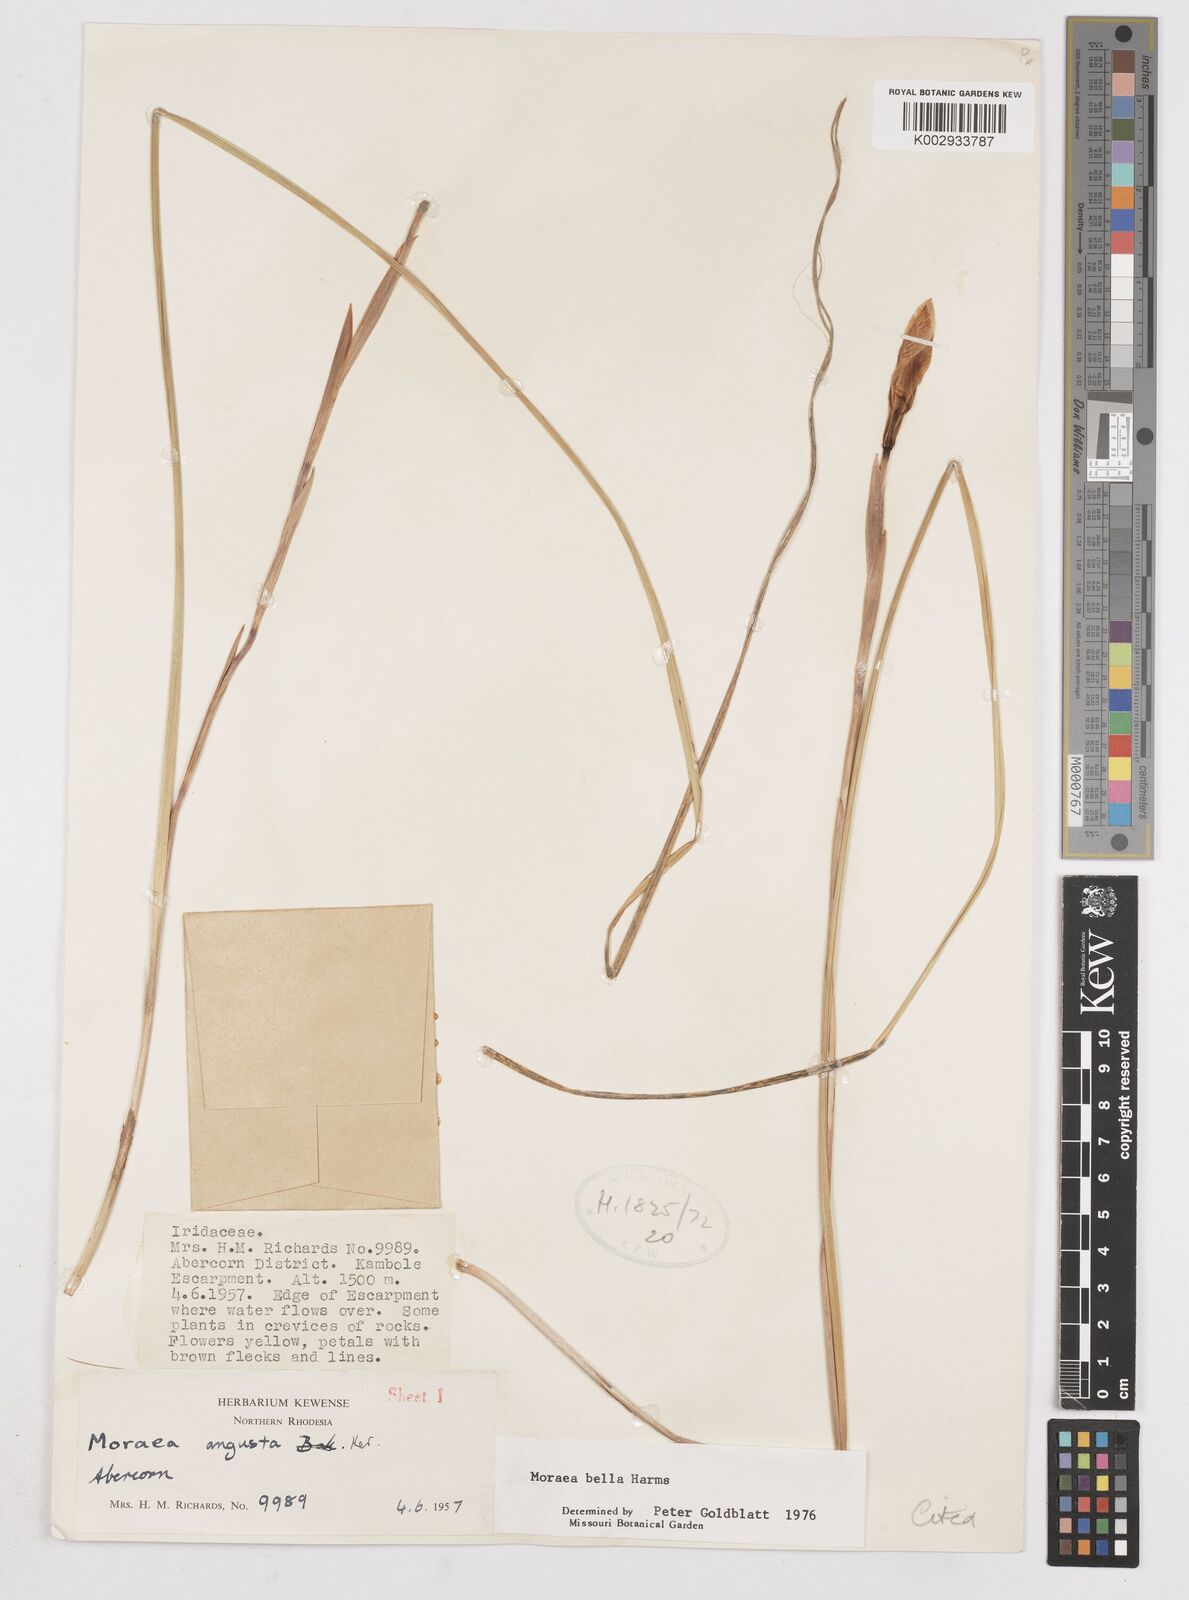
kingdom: Plantae
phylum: Tracheophyta
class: Liliopsida
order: Asparagales
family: Iridaceae
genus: Moraea
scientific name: Moraea bella
